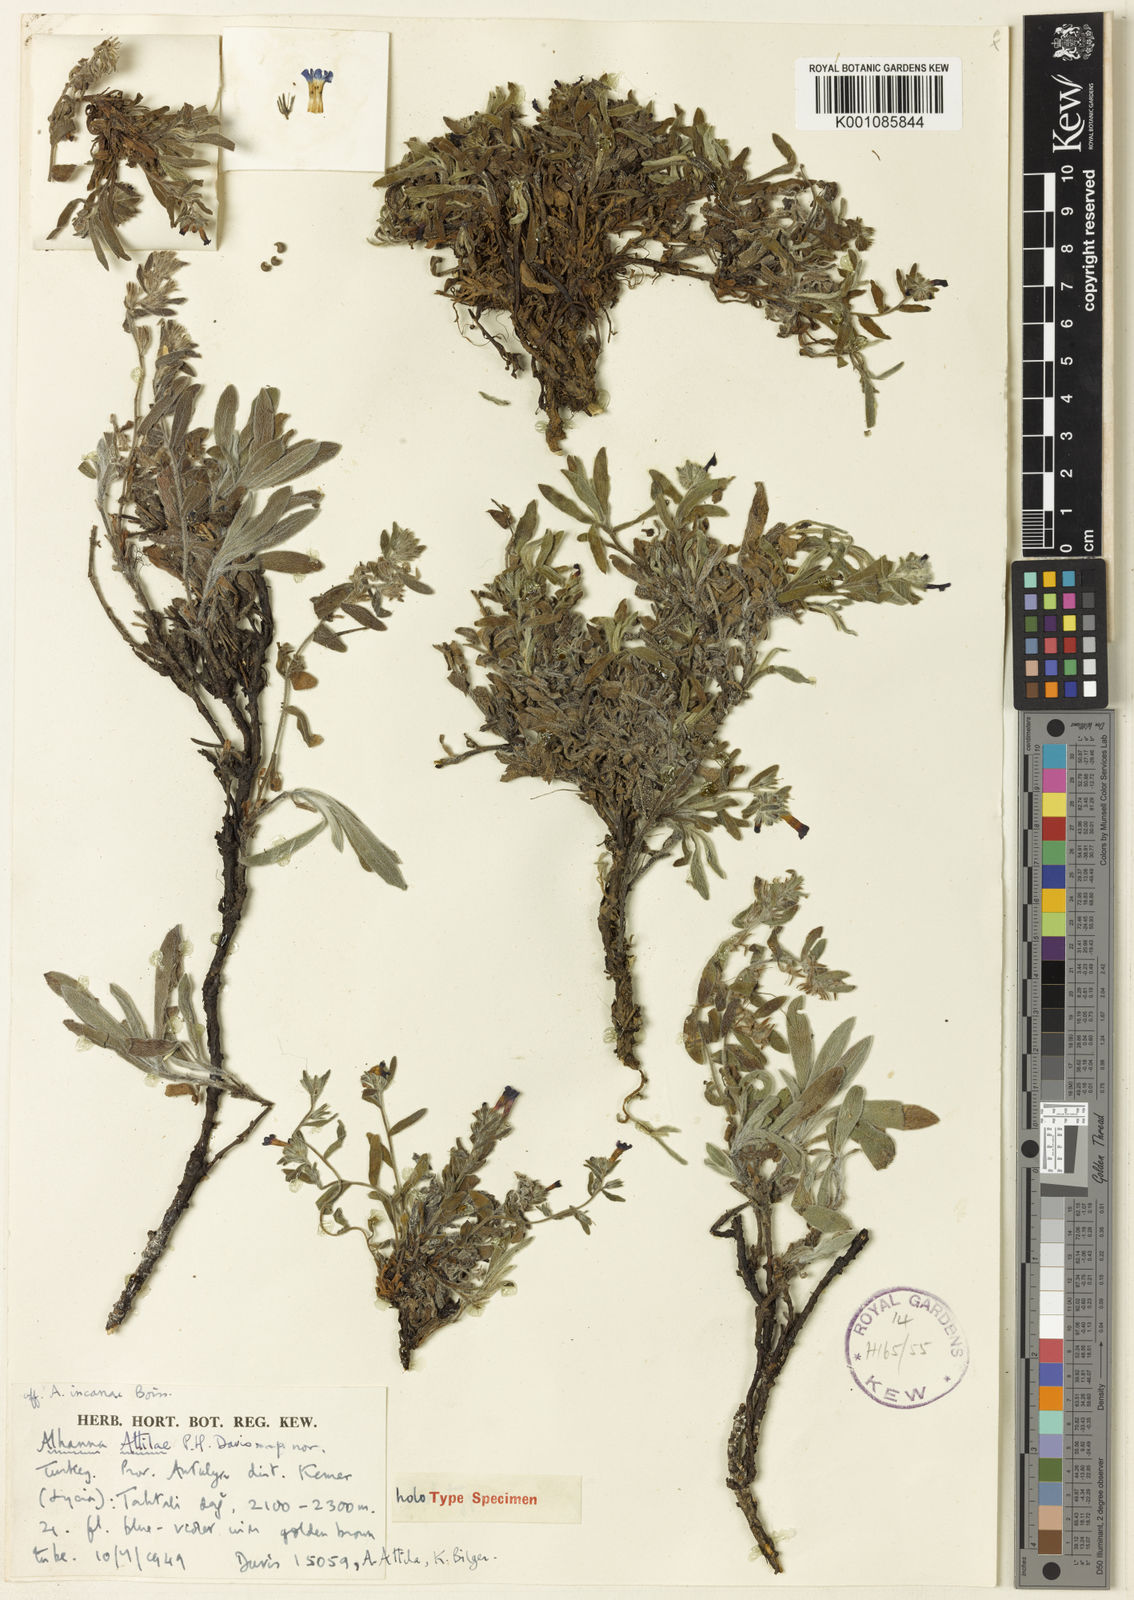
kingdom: Plantae
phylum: Tracheophyta
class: Magnoliopsida
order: Boraginales
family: Boraginaceae
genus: Alkanna
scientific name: Alkanna attilae
